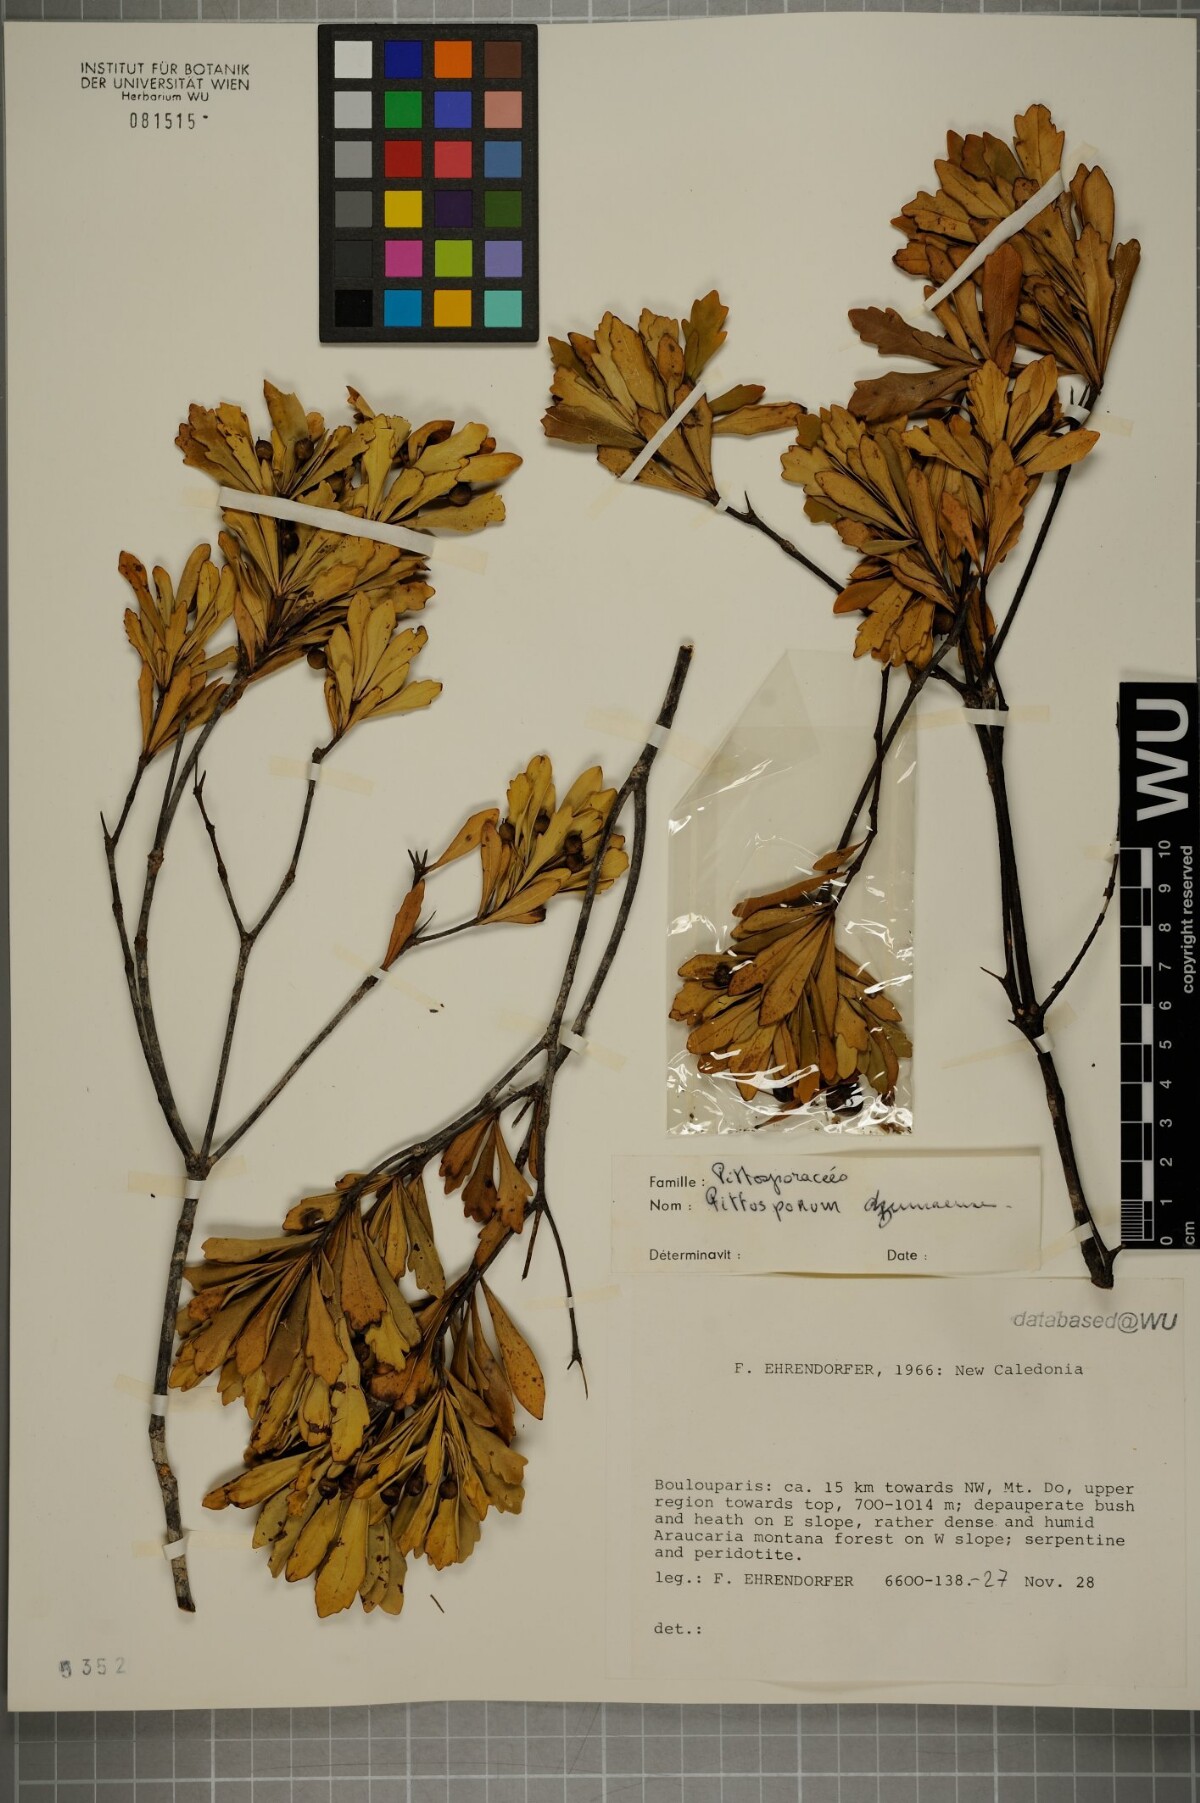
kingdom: Plantae
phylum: Tracheophyta
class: Magnoliopsida
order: Apiales
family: Pittosporaceae
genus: Pittosporum
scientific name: Pittosporum dzumacense
